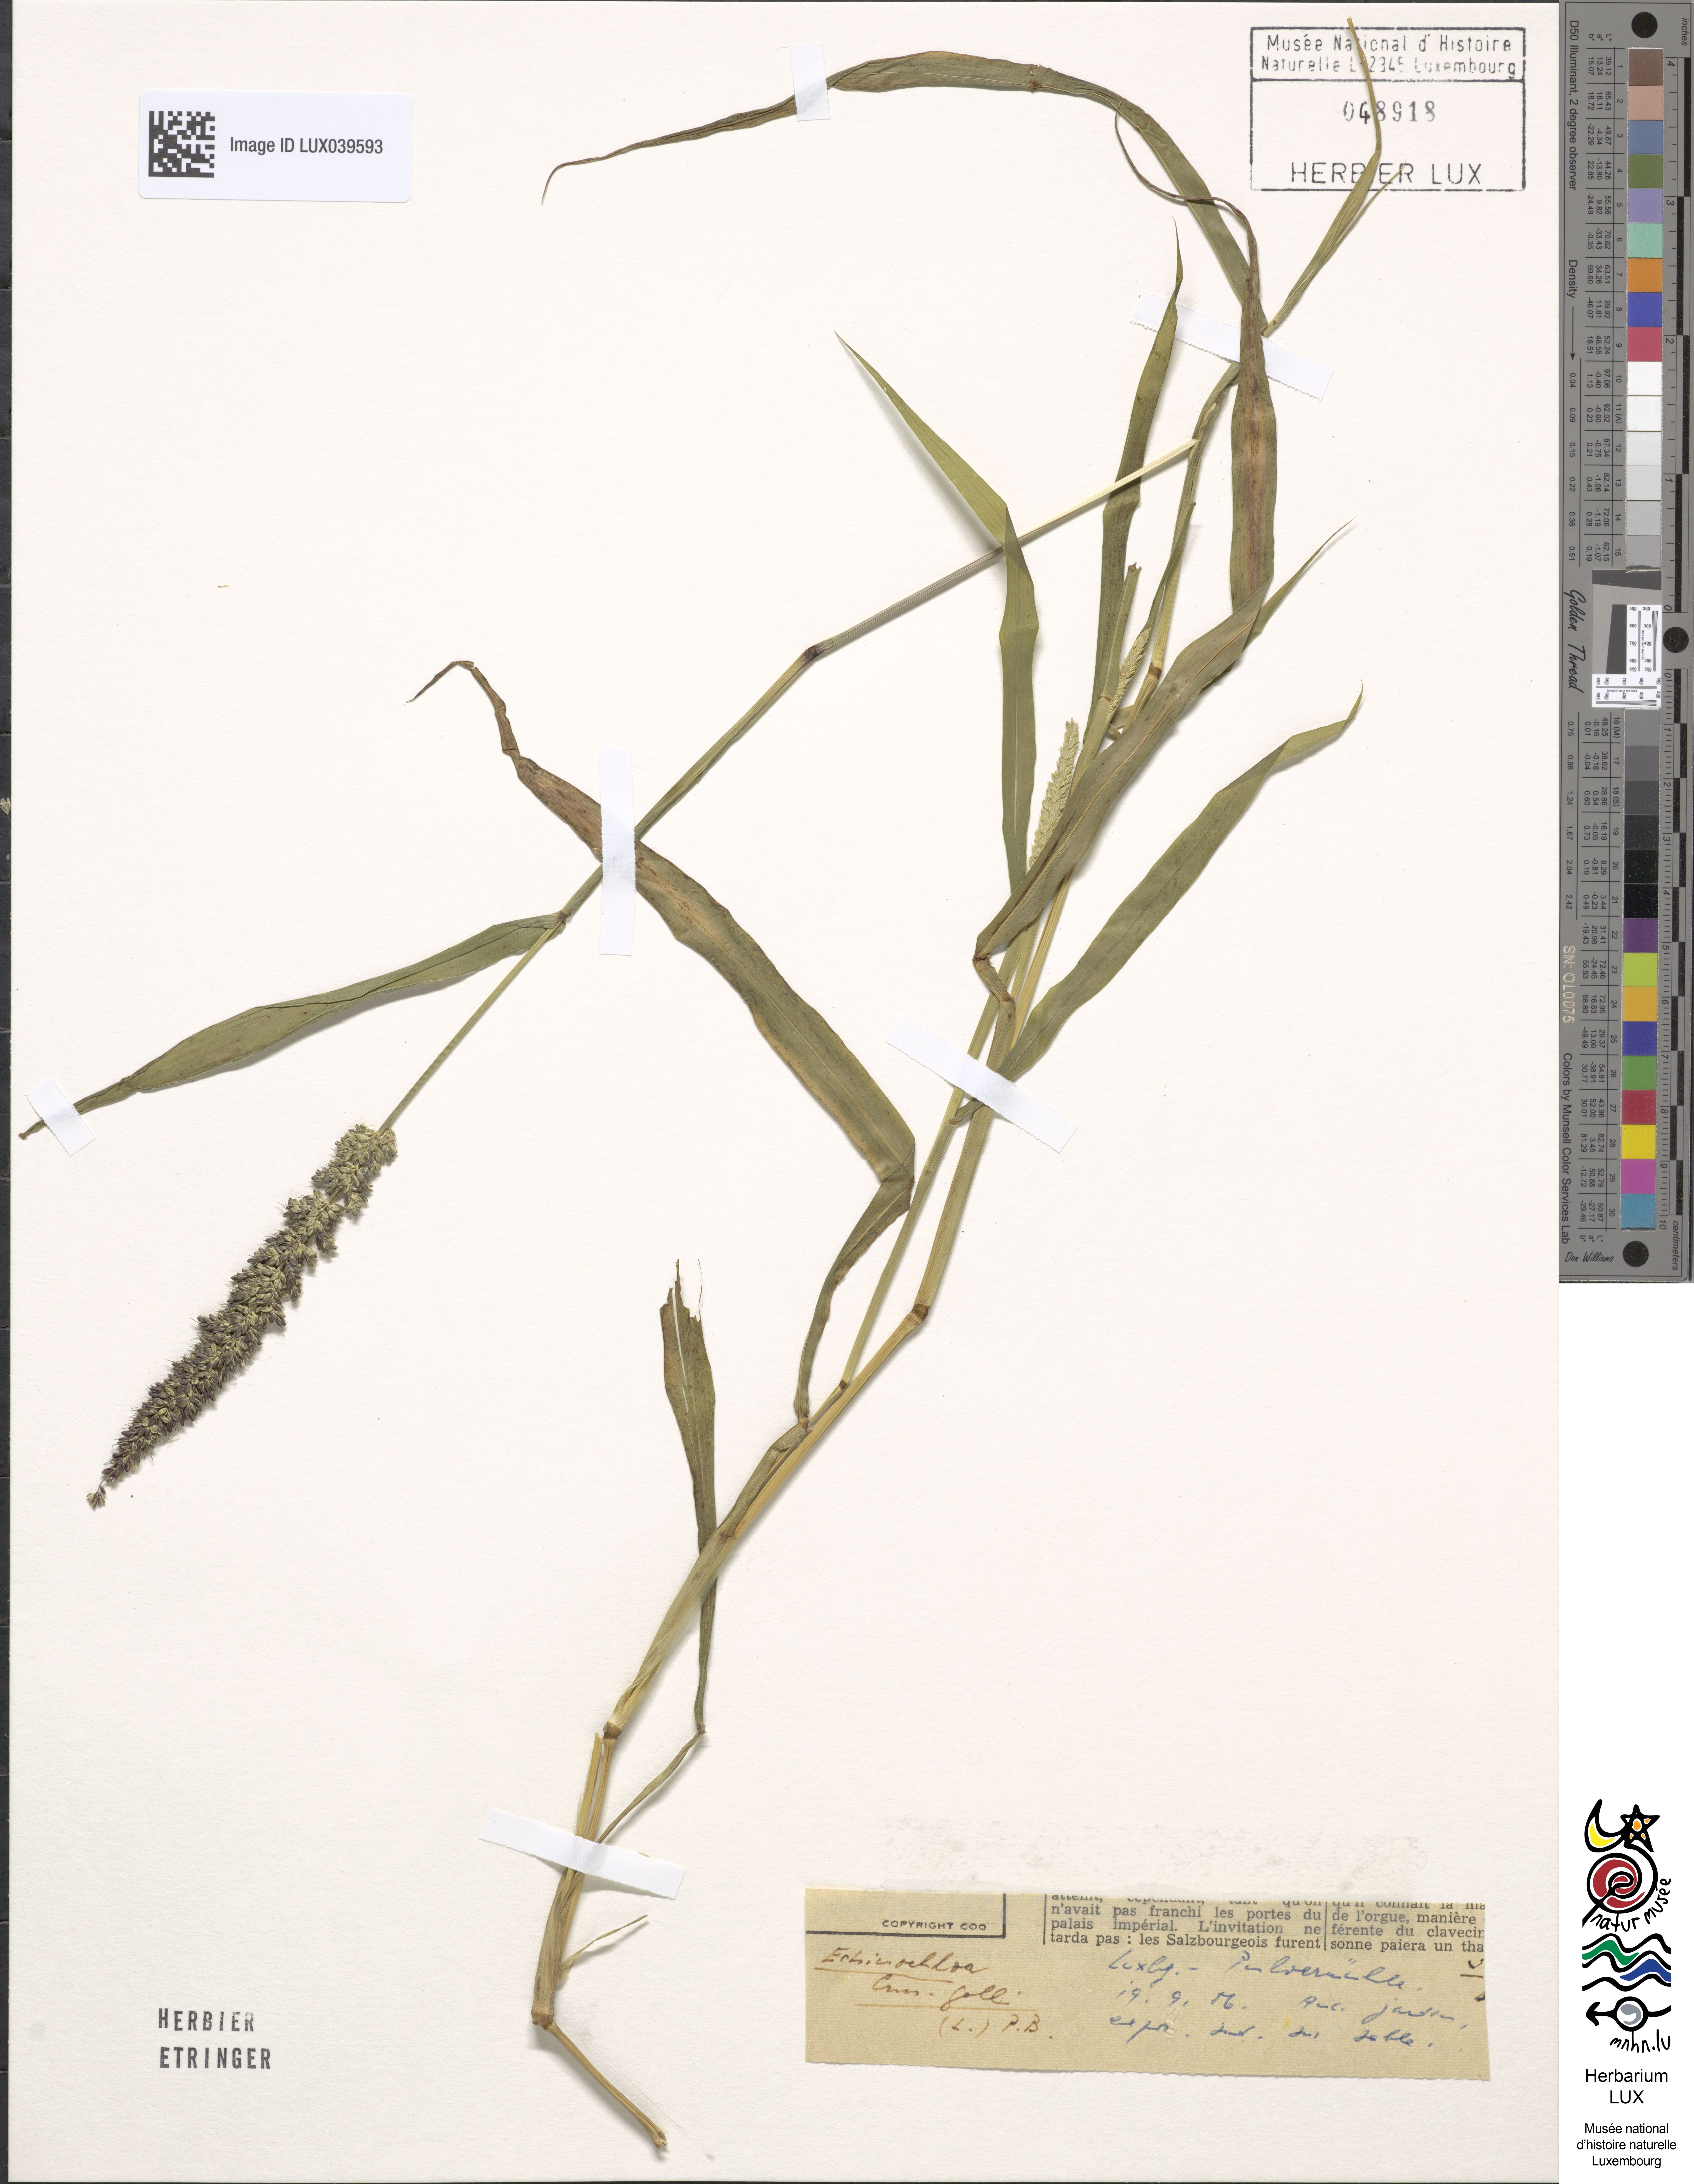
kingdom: Plantae
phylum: Tracheophyta
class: Liliopsida
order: Poales
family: Poaceae
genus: Echinochloa
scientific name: Echinochloa crus-galli
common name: Cockspur
